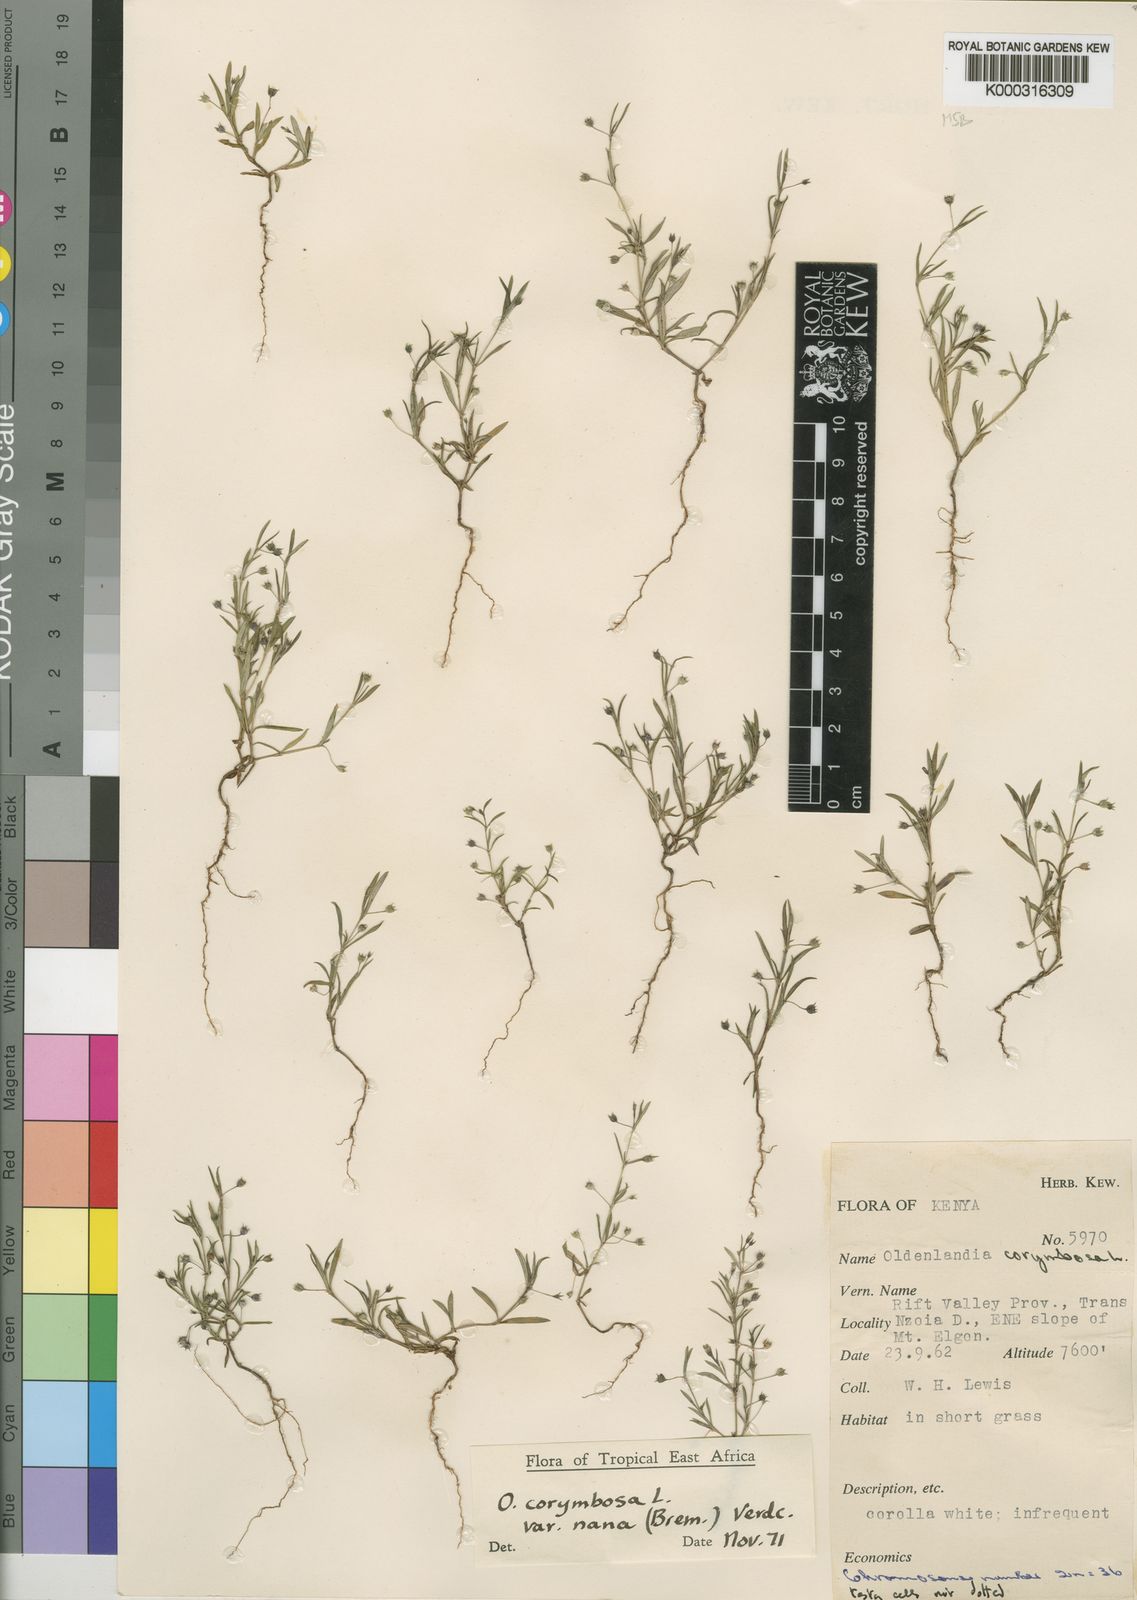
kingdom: Plantae
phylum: Tracheophyta
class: Magnoliopsida
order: Gentianales
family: Rubiaceae
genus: Oldenlandia
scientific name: Oldenlandia corymbosa
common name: Flat-top mille graines
